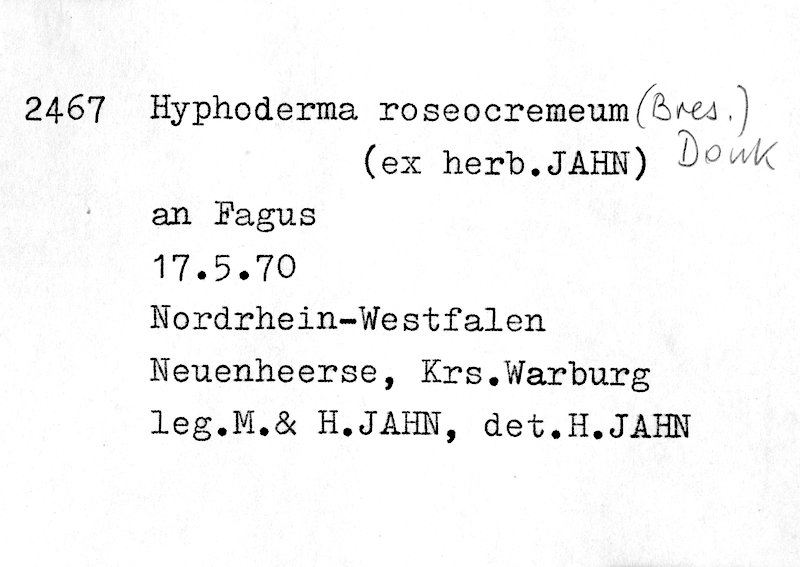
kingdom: Plantae
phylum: Tracheophyta
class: Magnoliopsida
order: Fagales
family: Fagaceae
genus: Fagus
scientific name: Fagus sylvatica
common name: Beech
